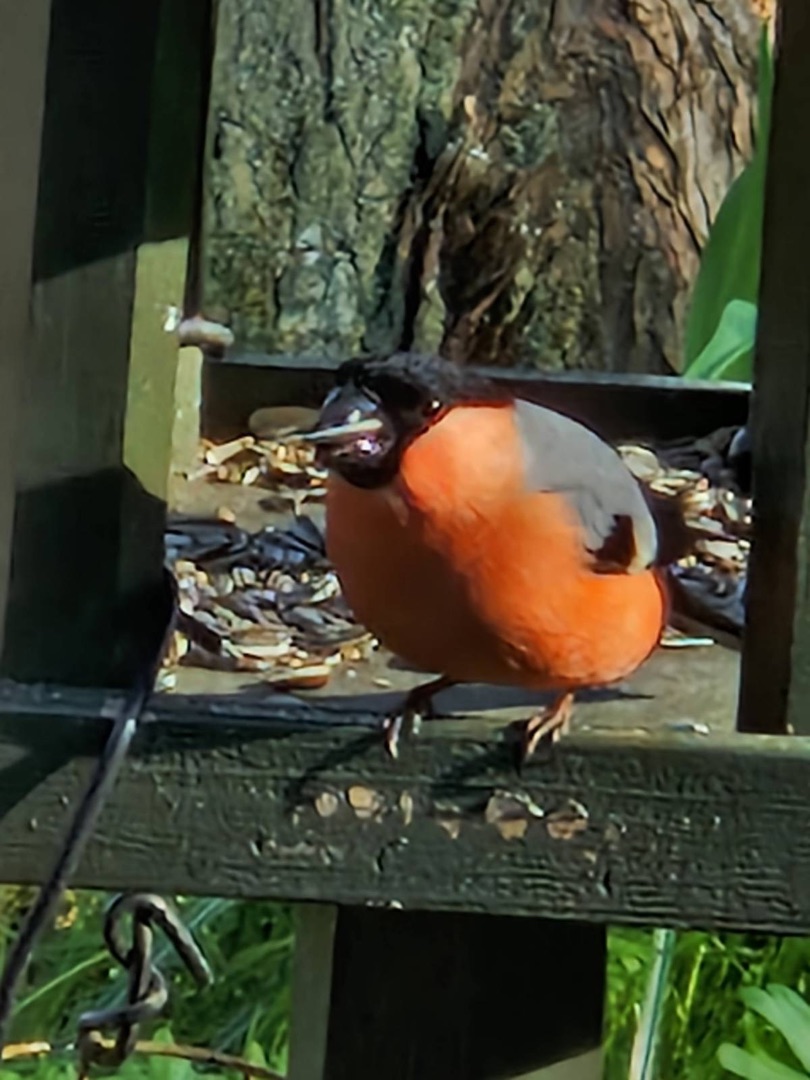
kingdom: Animalia
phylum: Chordata
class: Aves
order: Passeriformes
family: Fringillidae
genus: Pyrrhula
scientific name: Pyrrhula pyrrhula
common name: Dompap
